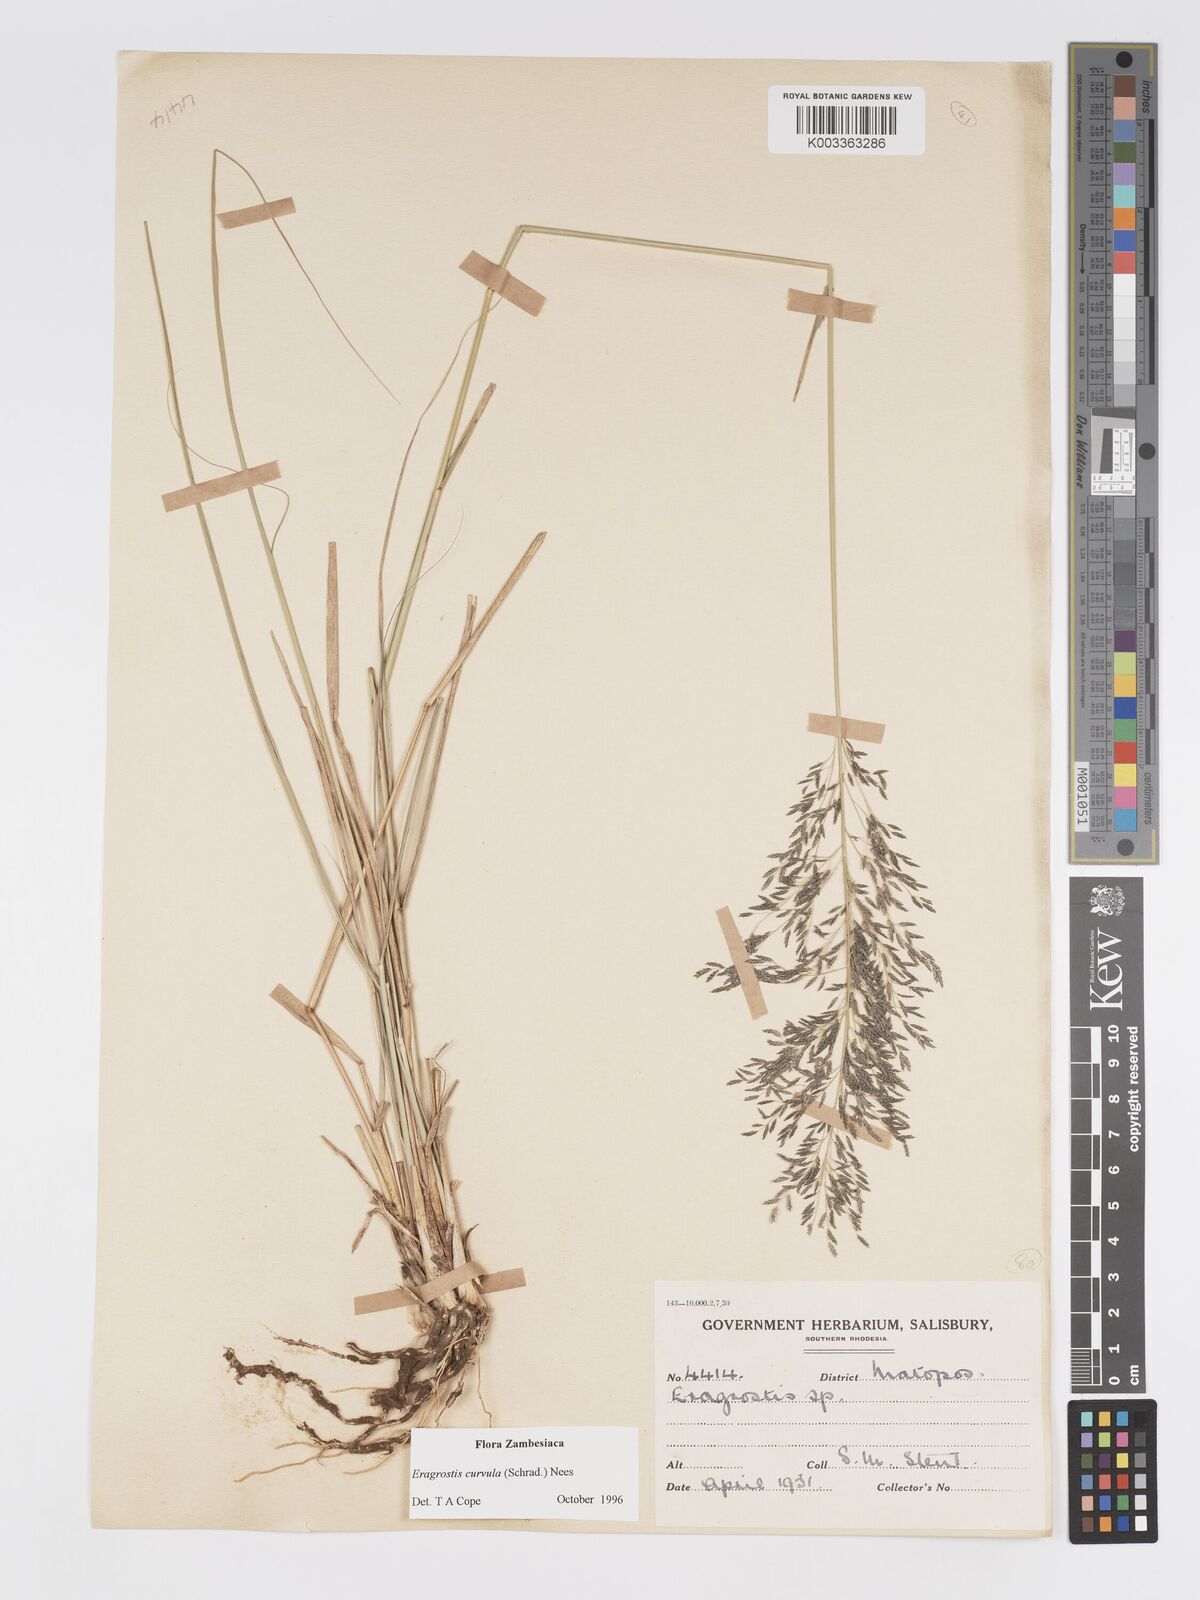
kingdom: Plantae
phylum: Tracheophyta
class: Liliopsida
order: Poales
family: Poaceae
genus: Eragrostis
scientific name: Eragrostis curvula
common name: African love-grass
